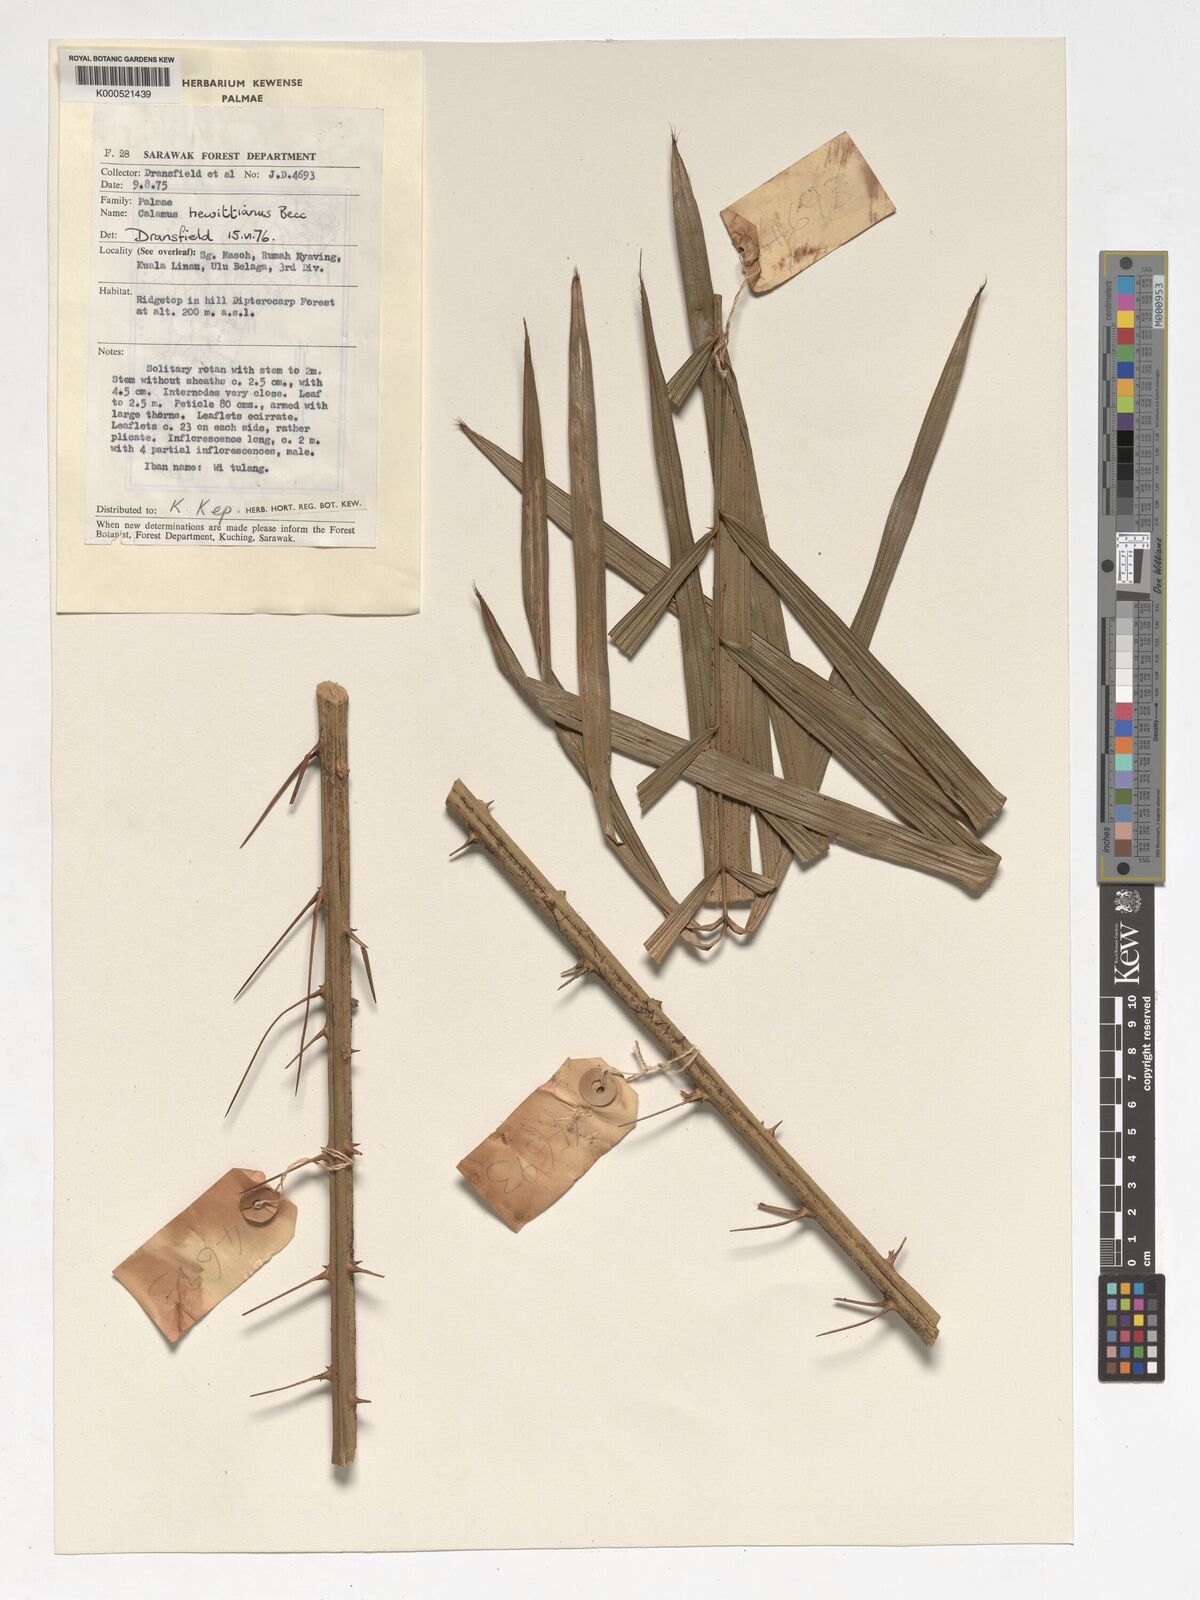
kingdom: Plantae
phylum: Tracheophyta
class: Liliopsida
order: Arecales
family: Arecaceae
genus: Calamus
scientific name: Calamus myriacanthus
